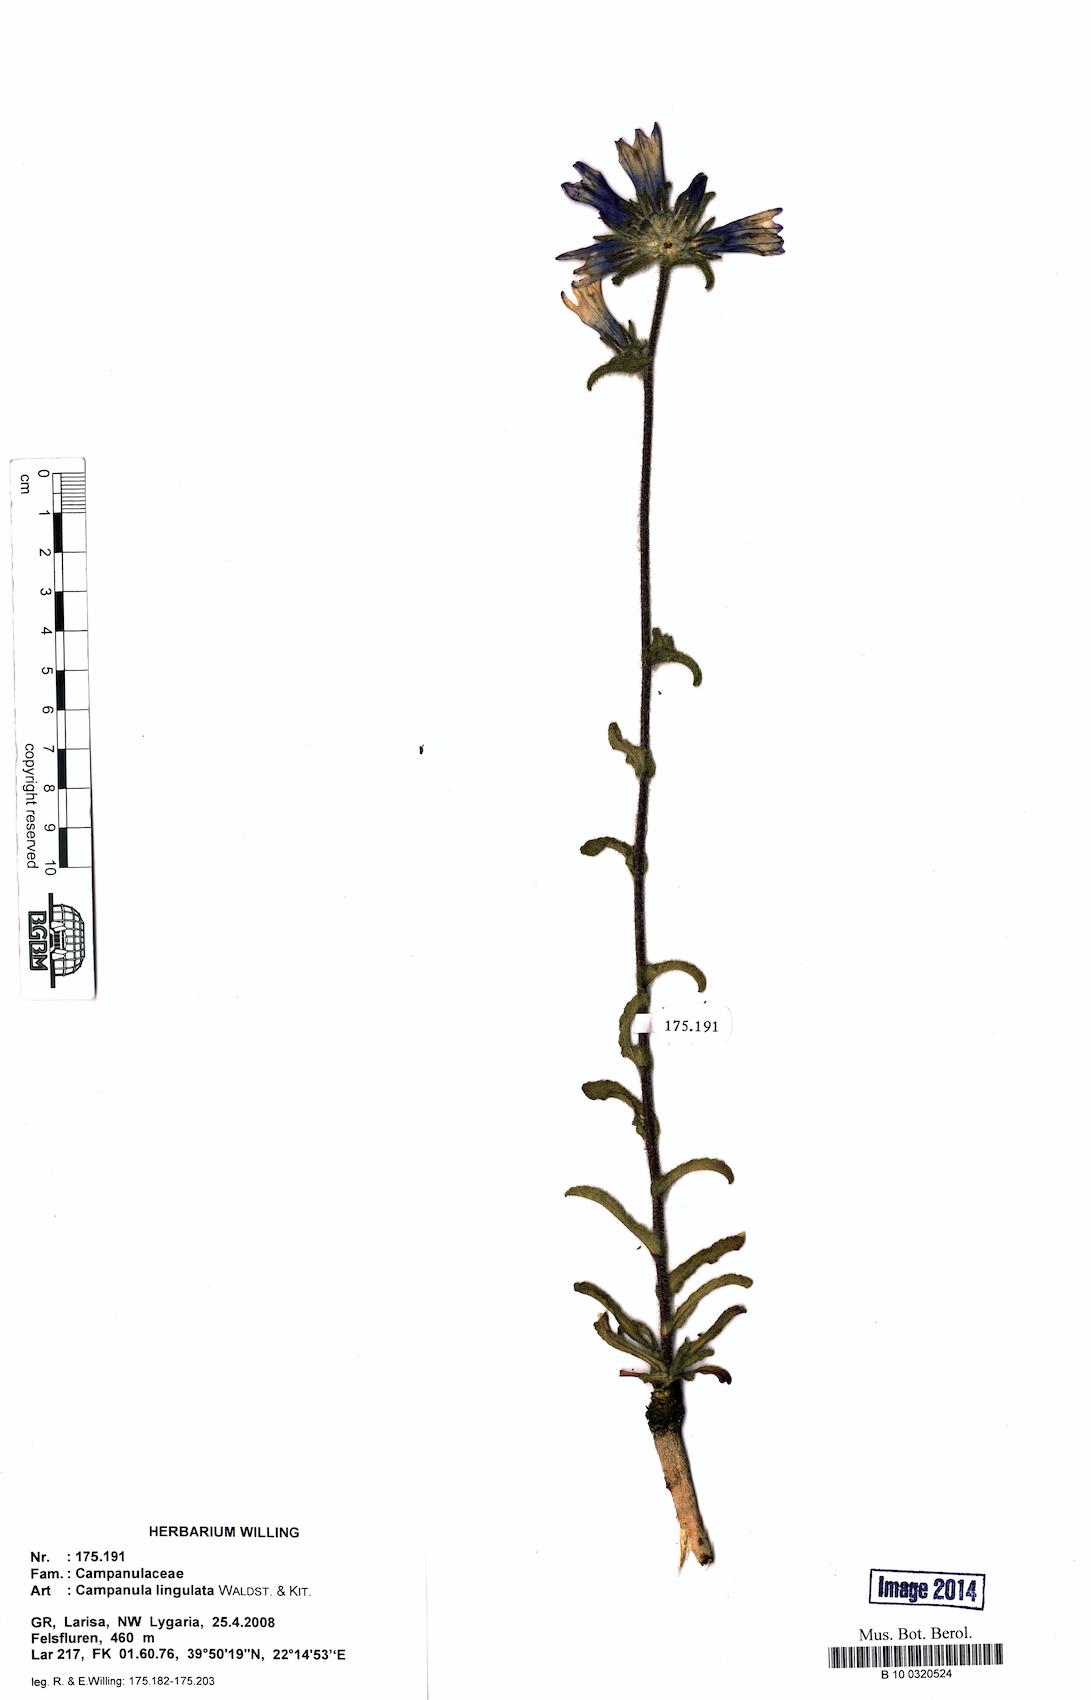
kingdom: Plantae
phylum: Tracheophyta
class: Magnoliopsida
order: Asterales
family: Campanulaceae
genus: Campanula
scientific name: Campanula lingulata
